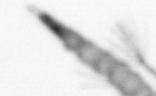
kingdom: Animalia
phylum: Arthropoda
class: Copepoda
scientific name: Copepoda
